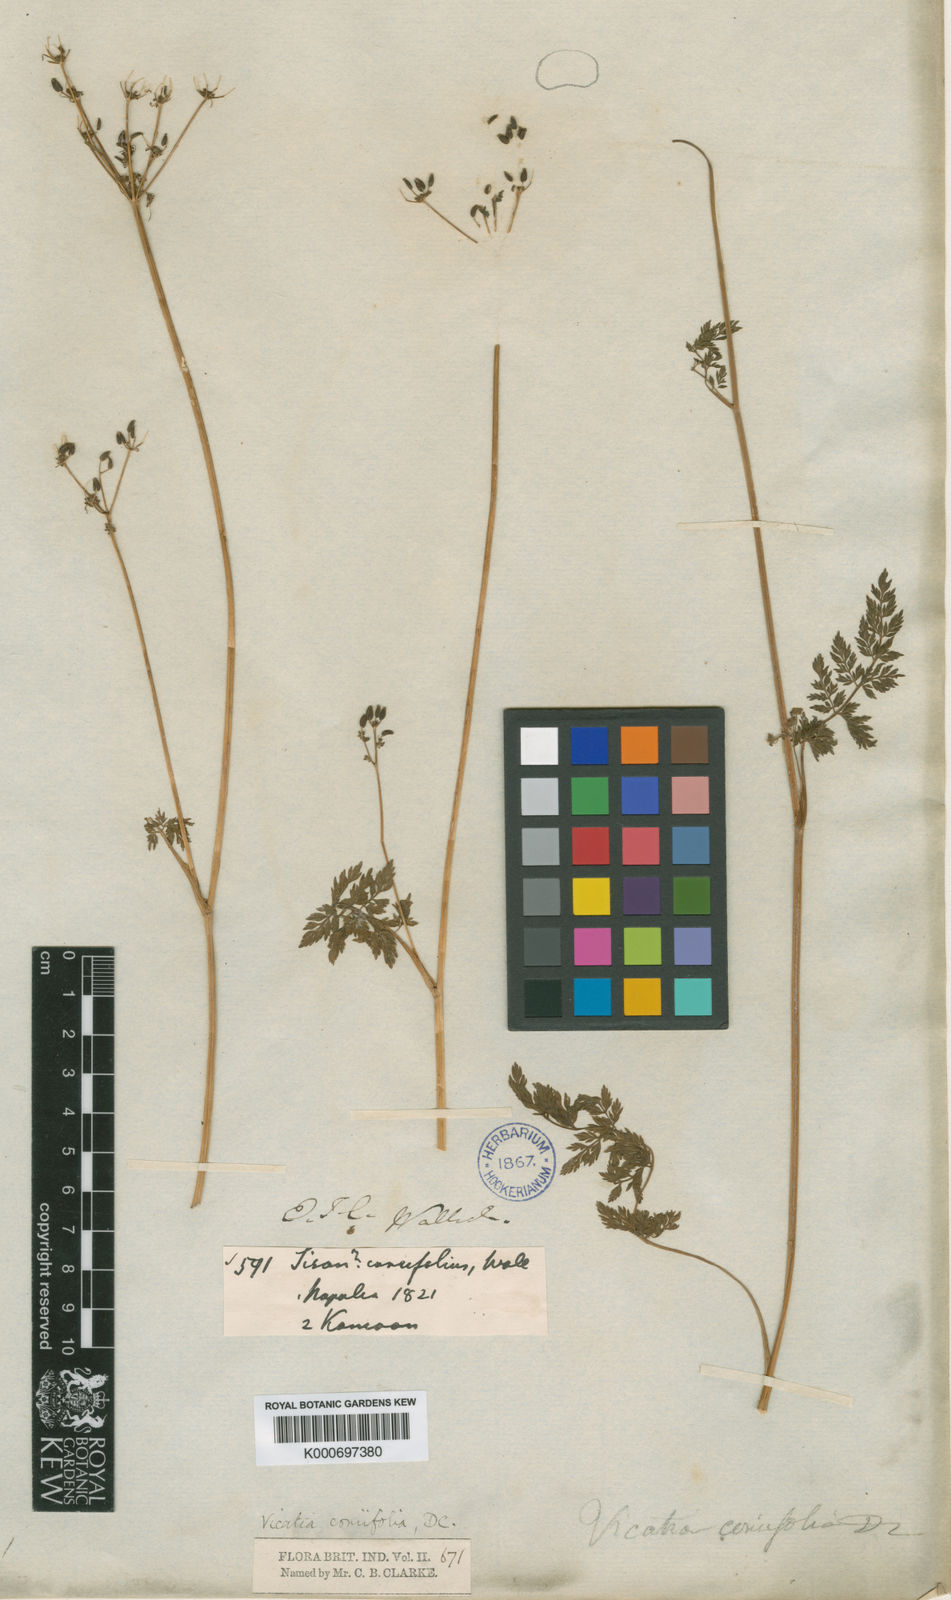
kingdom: Plantae
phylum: Tracheophyta
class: Magnoliopsida
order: Apiales
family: Apiaceae
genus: Vicatia
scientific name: Vicatia coniifolia
